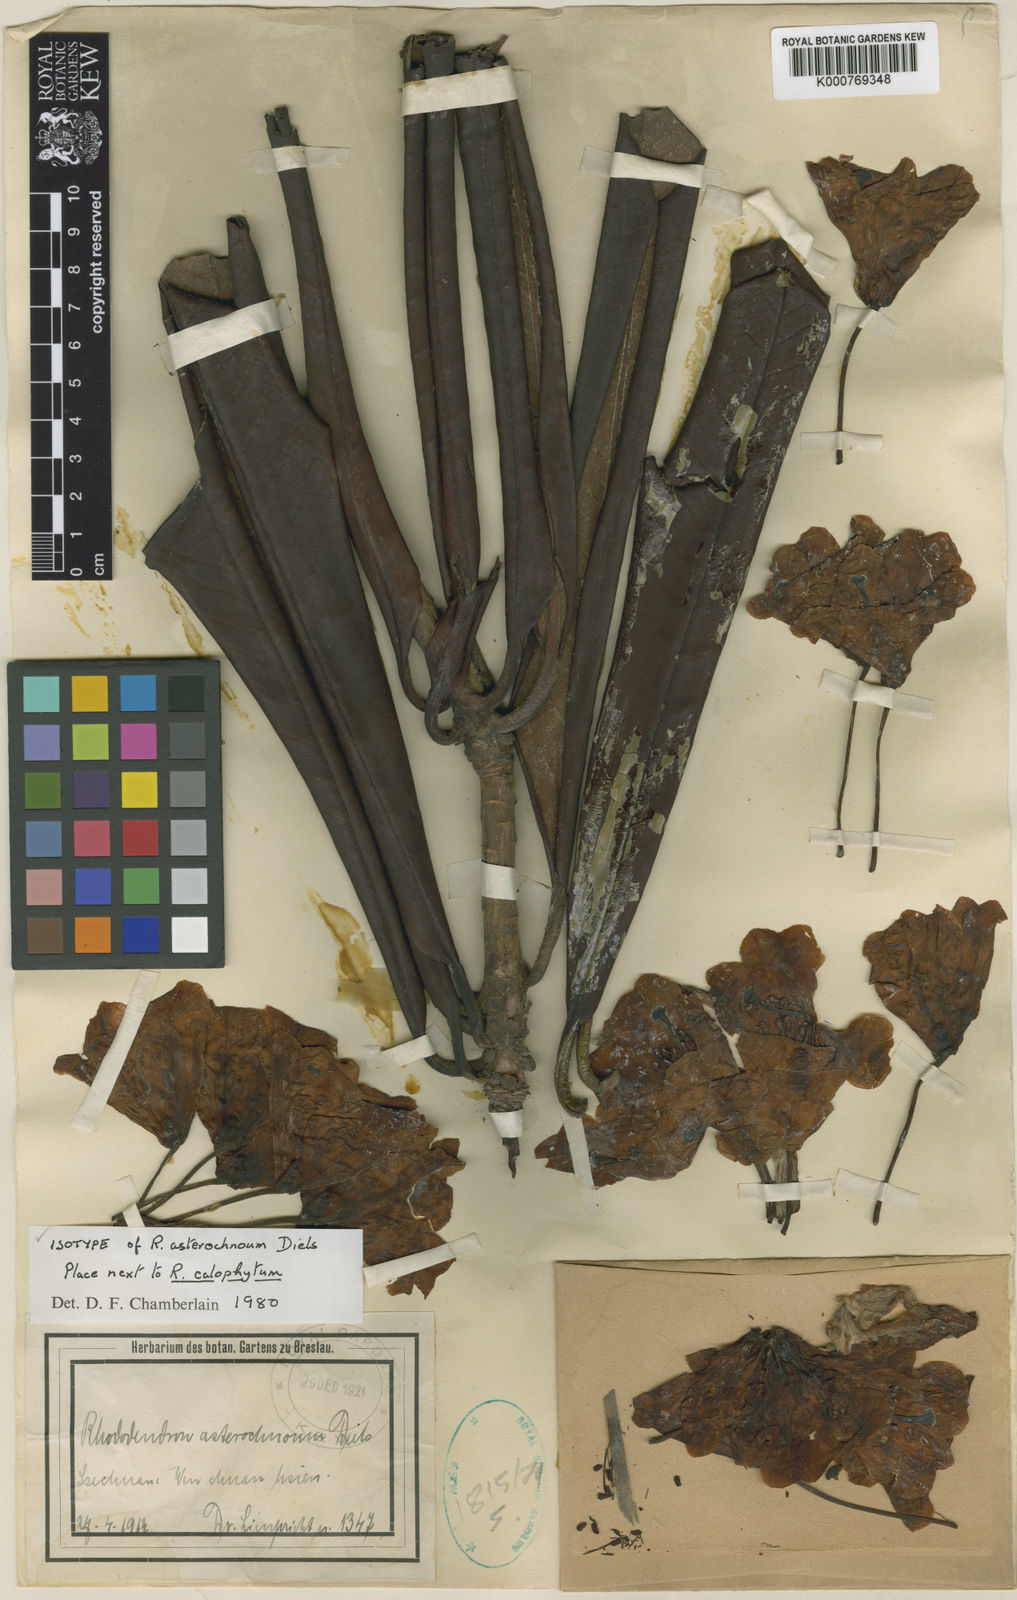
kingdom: Plantae
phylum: Tracheophyta
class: Magnoliopsida
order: Ericales
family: Ericaceae
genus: Rhododendron
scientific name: Rhododendron asterochnoum
